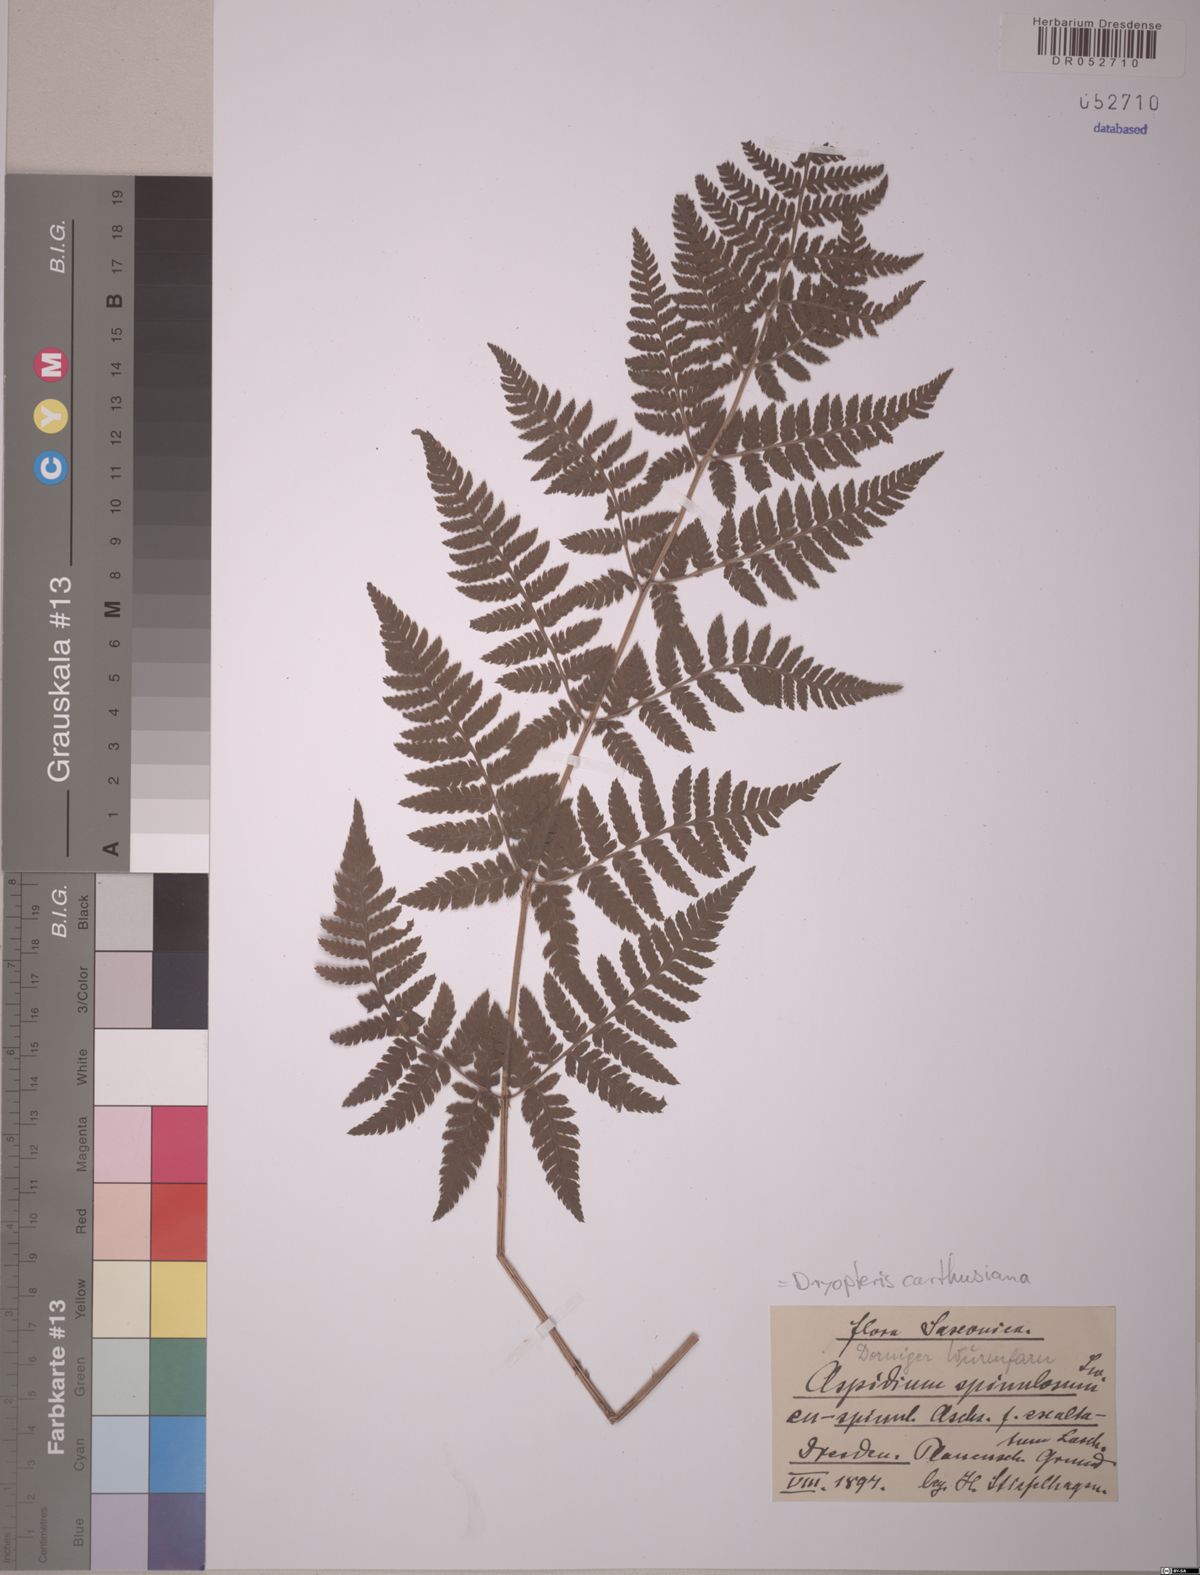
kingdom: Plantae
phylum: Tracheophyta
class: Polypodiopsida
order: Polypodiales
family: Dryopteridaceae
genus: Dryopteris
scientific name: Dryopteris carthusiana
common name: Narrow buckler-fern
